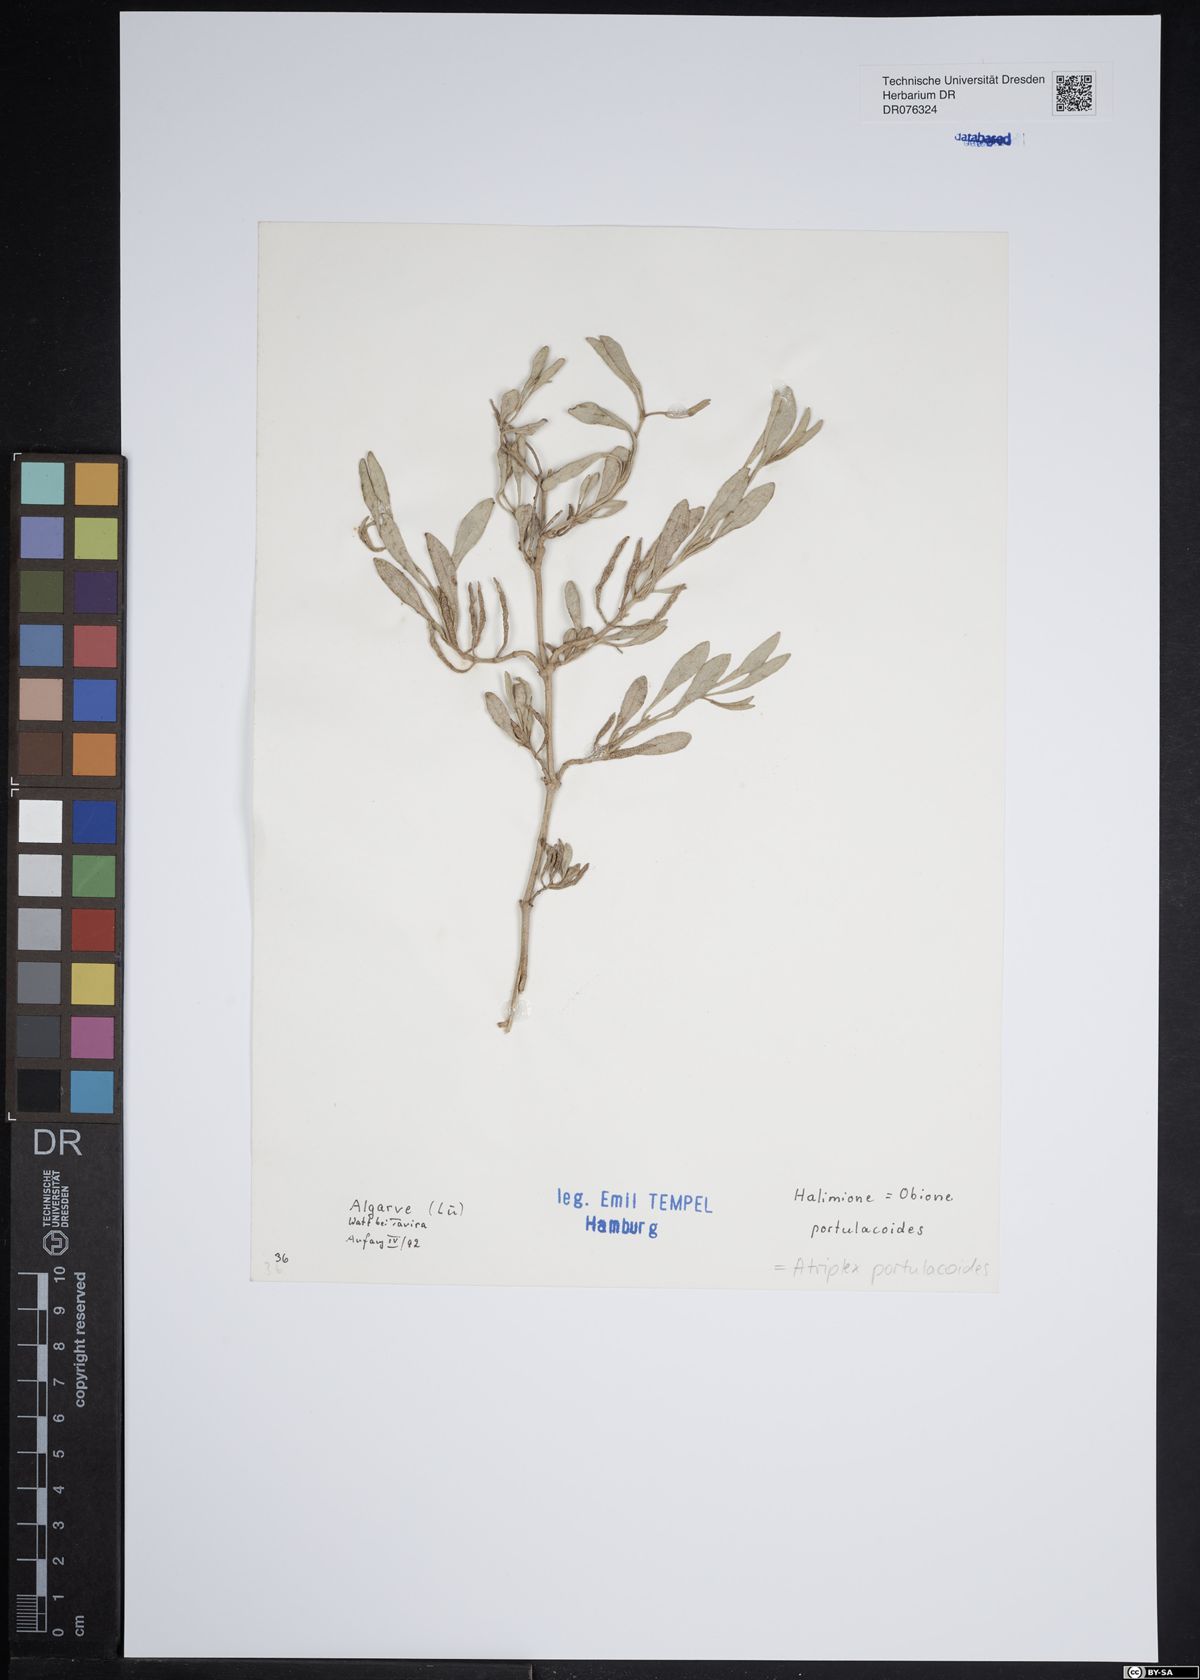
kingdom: Plantae
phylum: Tracheophyta
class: Magnoliopsida
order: Caryophyllales
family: Amaranthaceae
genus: Halimione
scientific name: Halimione portulacoides
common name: Sea-purslane
